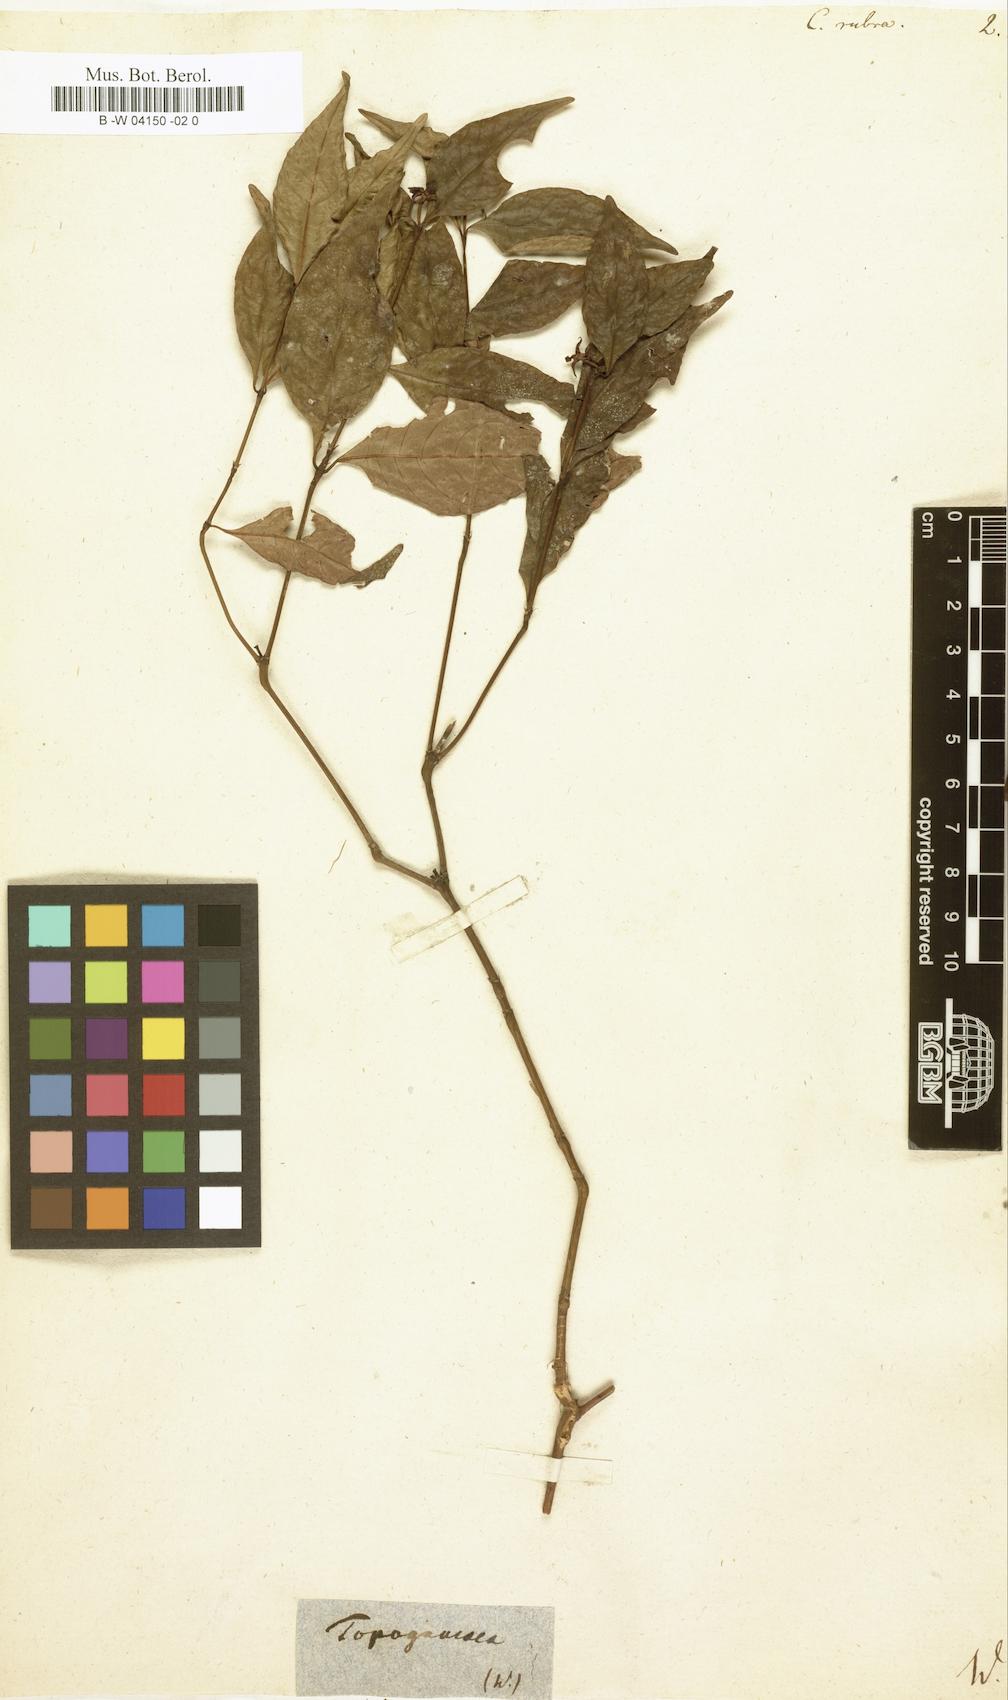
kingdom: Plantae
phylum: Tracheophyta
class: Magnoliopsida
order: Gentianales
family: Rubiaceae
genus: Palicourea
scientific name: Palicourea hoffmannseggiana
